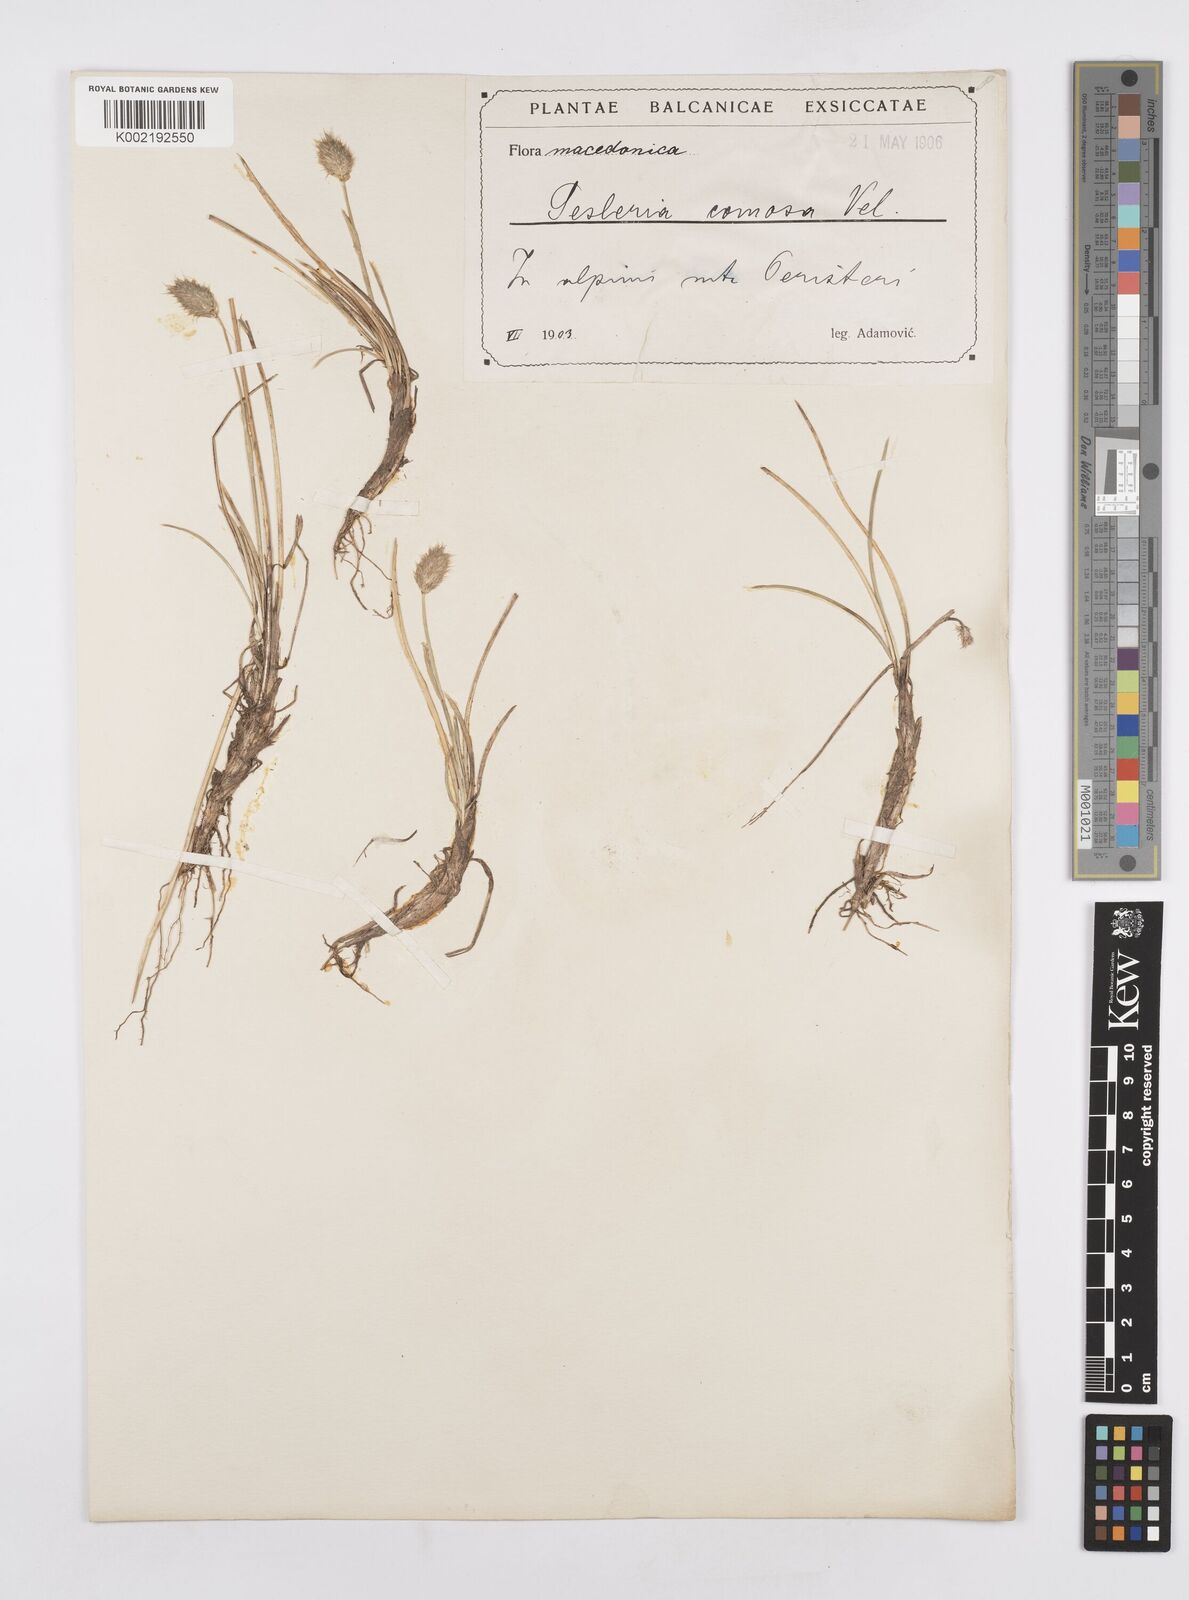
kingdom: Plantae
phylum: Tracheophyta
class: Liliopsida
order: Poales
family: Poaceae
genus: Sesleria
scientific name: Sesleria comosa
